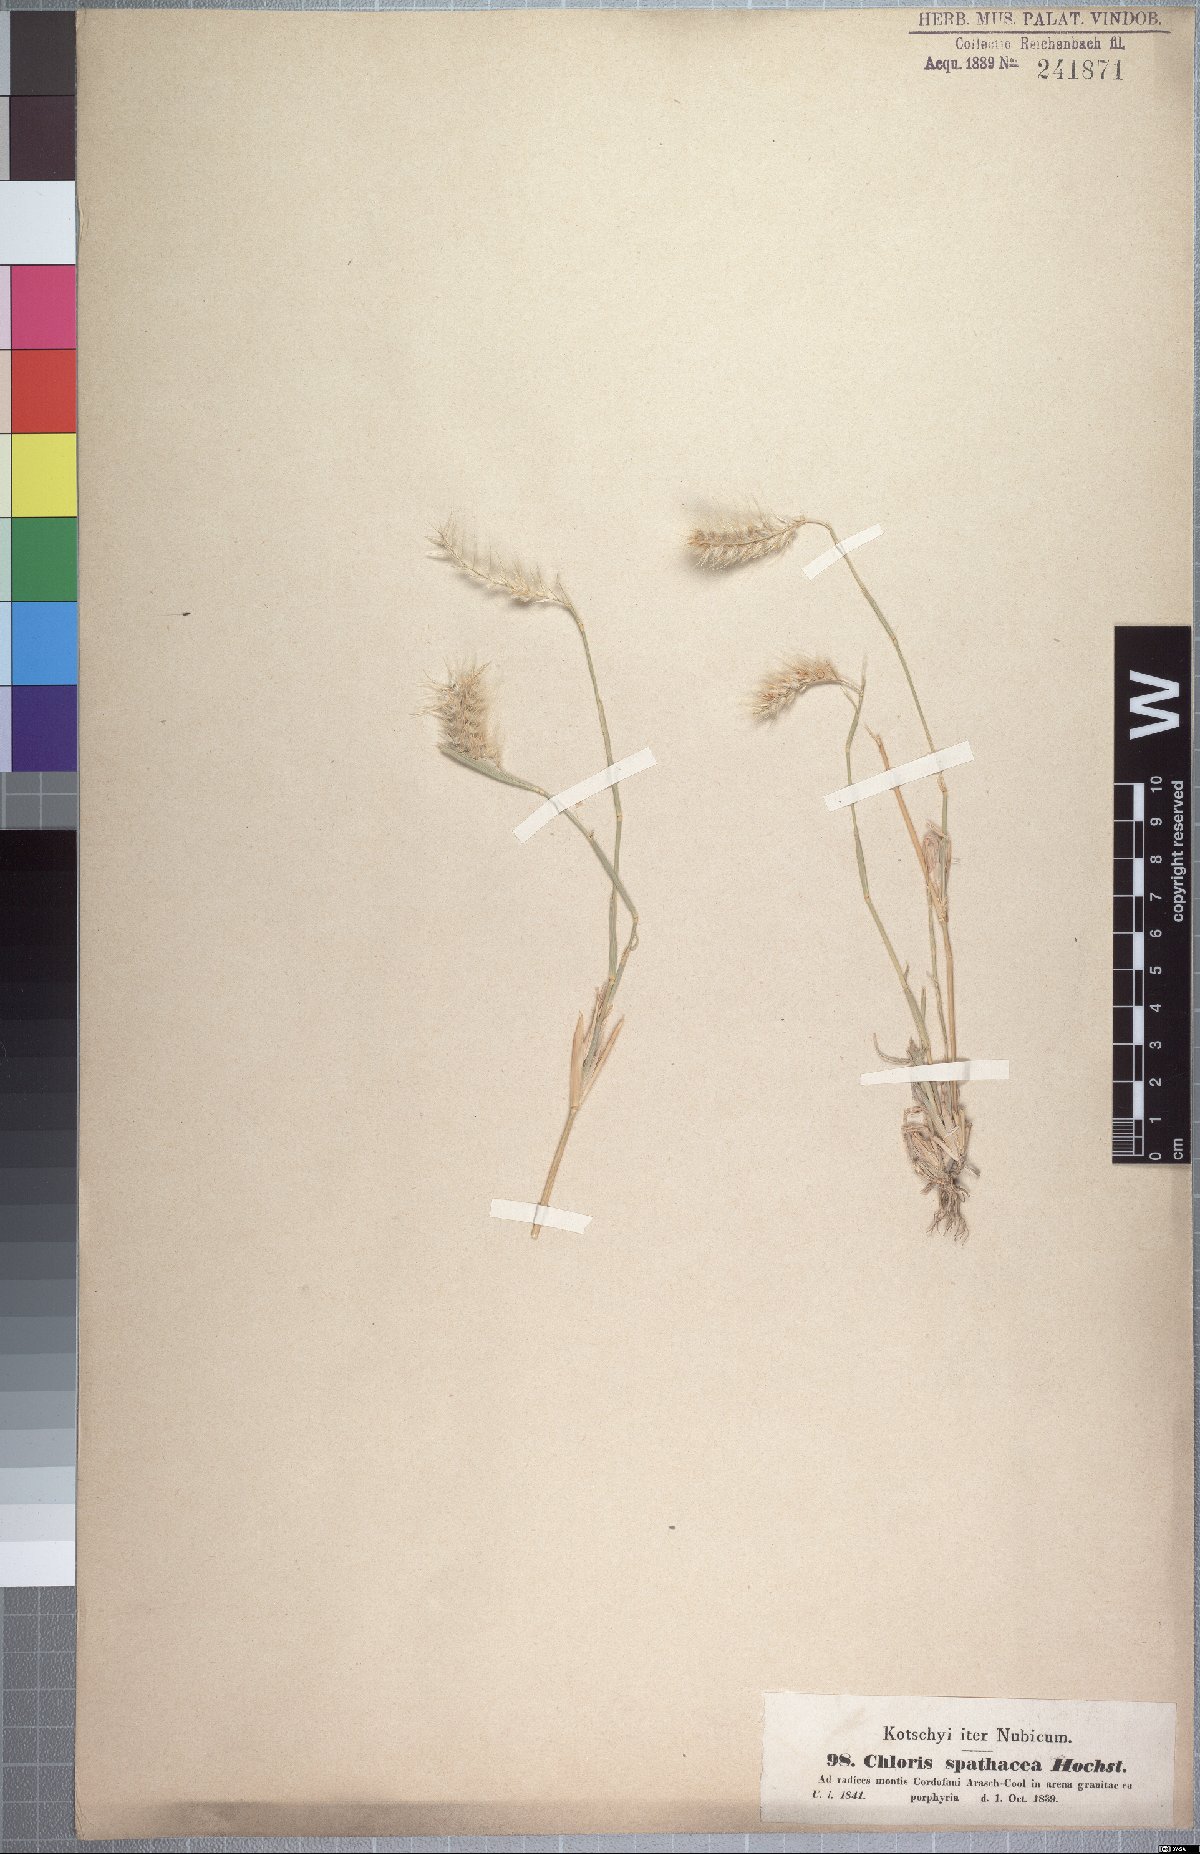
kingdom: Plantae
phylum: Tracheophyta
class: Liliopsida
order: Poales
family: Poaceae
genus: Tetrapogon
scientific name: Tetrapogon cenchriformis
